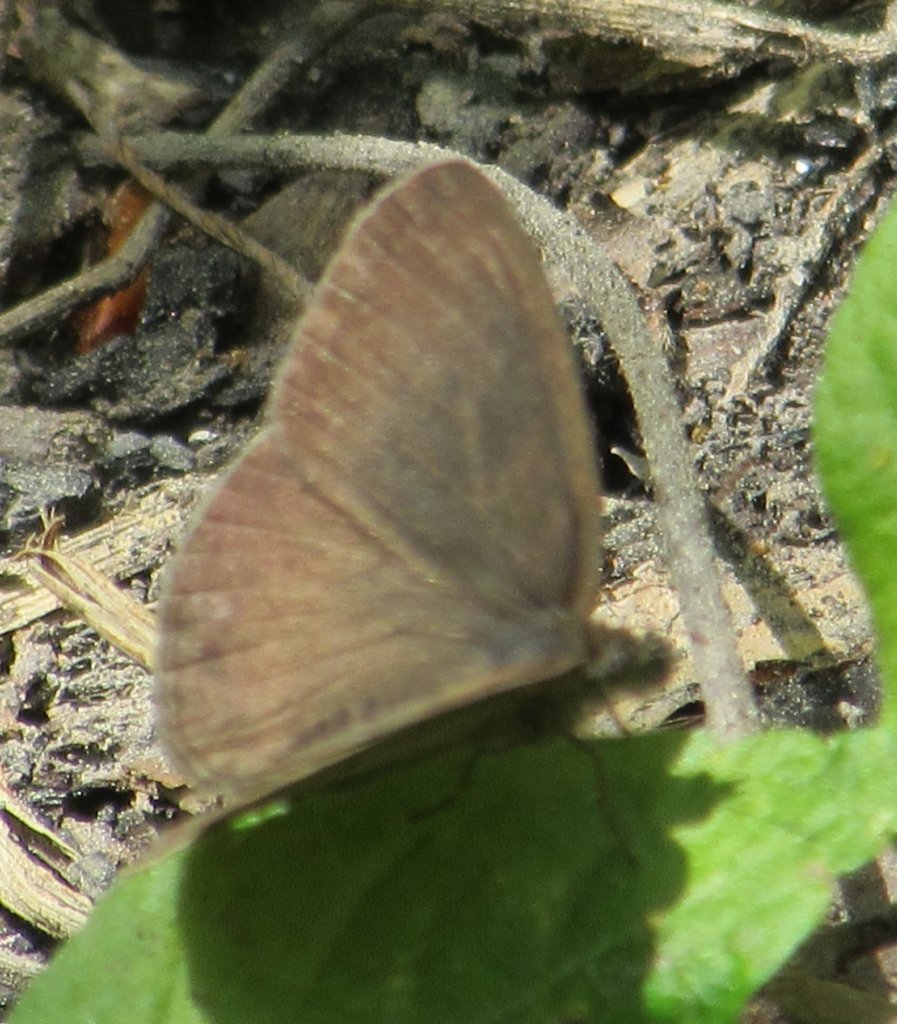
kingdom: Animalia
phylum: Arthropoda
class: Insecta
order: Lepidoptera
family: Nymphalidae
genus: Hermeuptychia
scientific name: Hermeuptychia hermes
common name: Carolina Satyr
